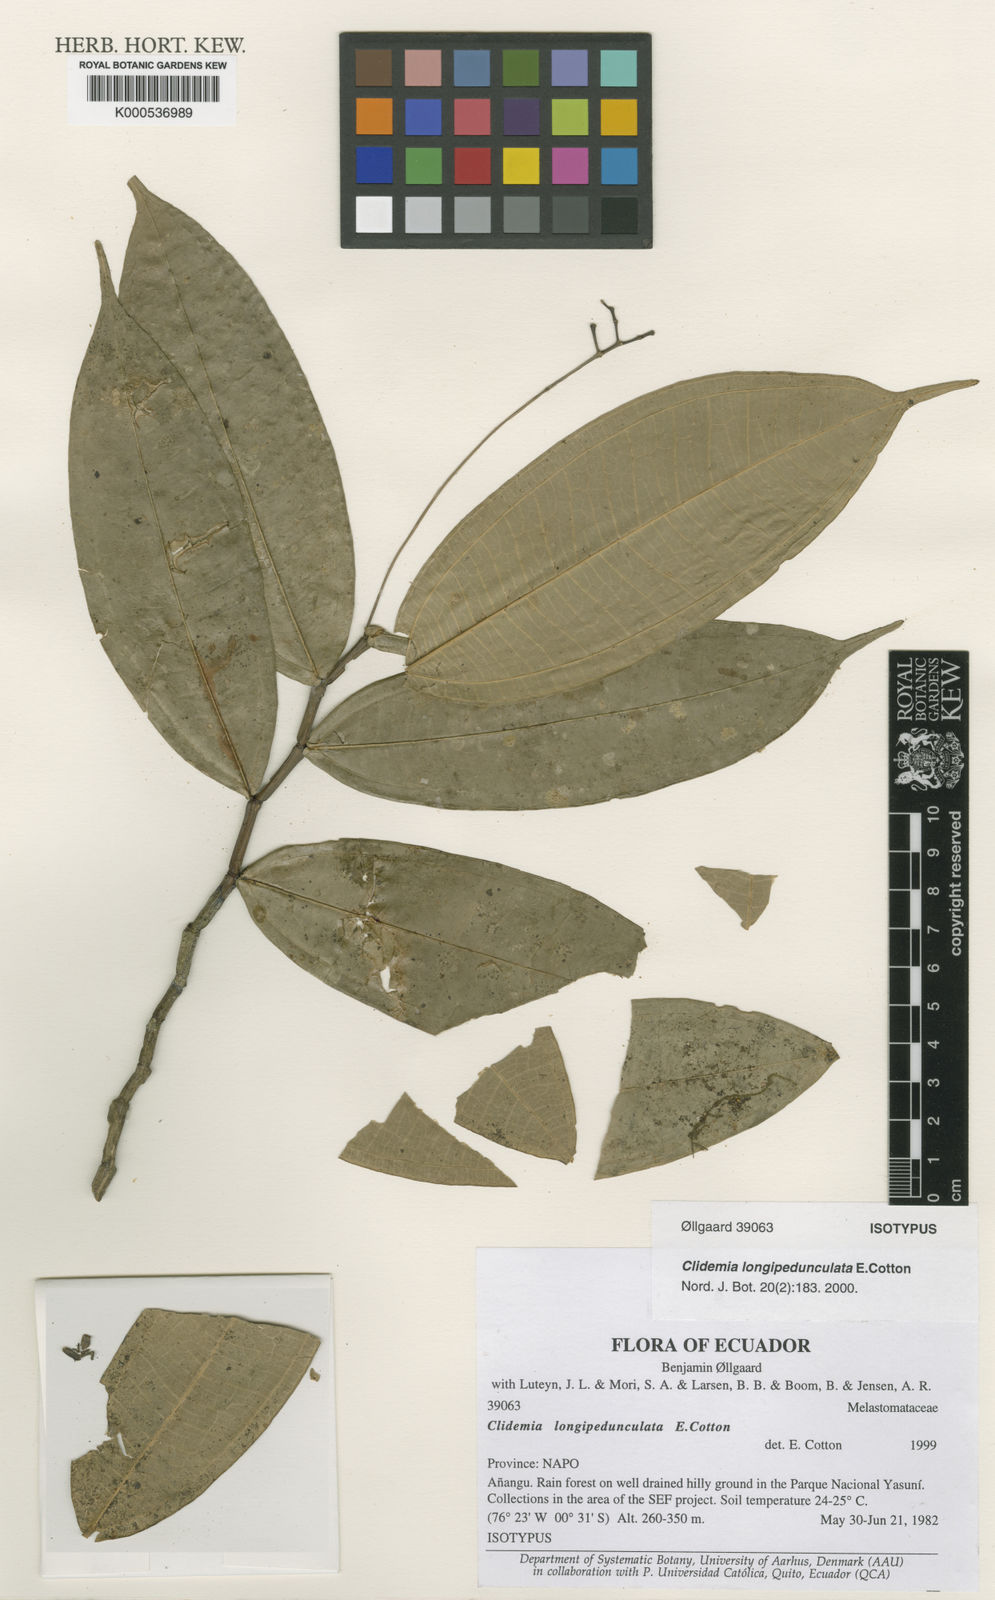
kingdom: Plantae
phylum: Tracheophyta
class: Magnoliopsida
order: Myrtales
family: Melastomataceae
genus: Miconia
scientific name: Miconia cottoniana
